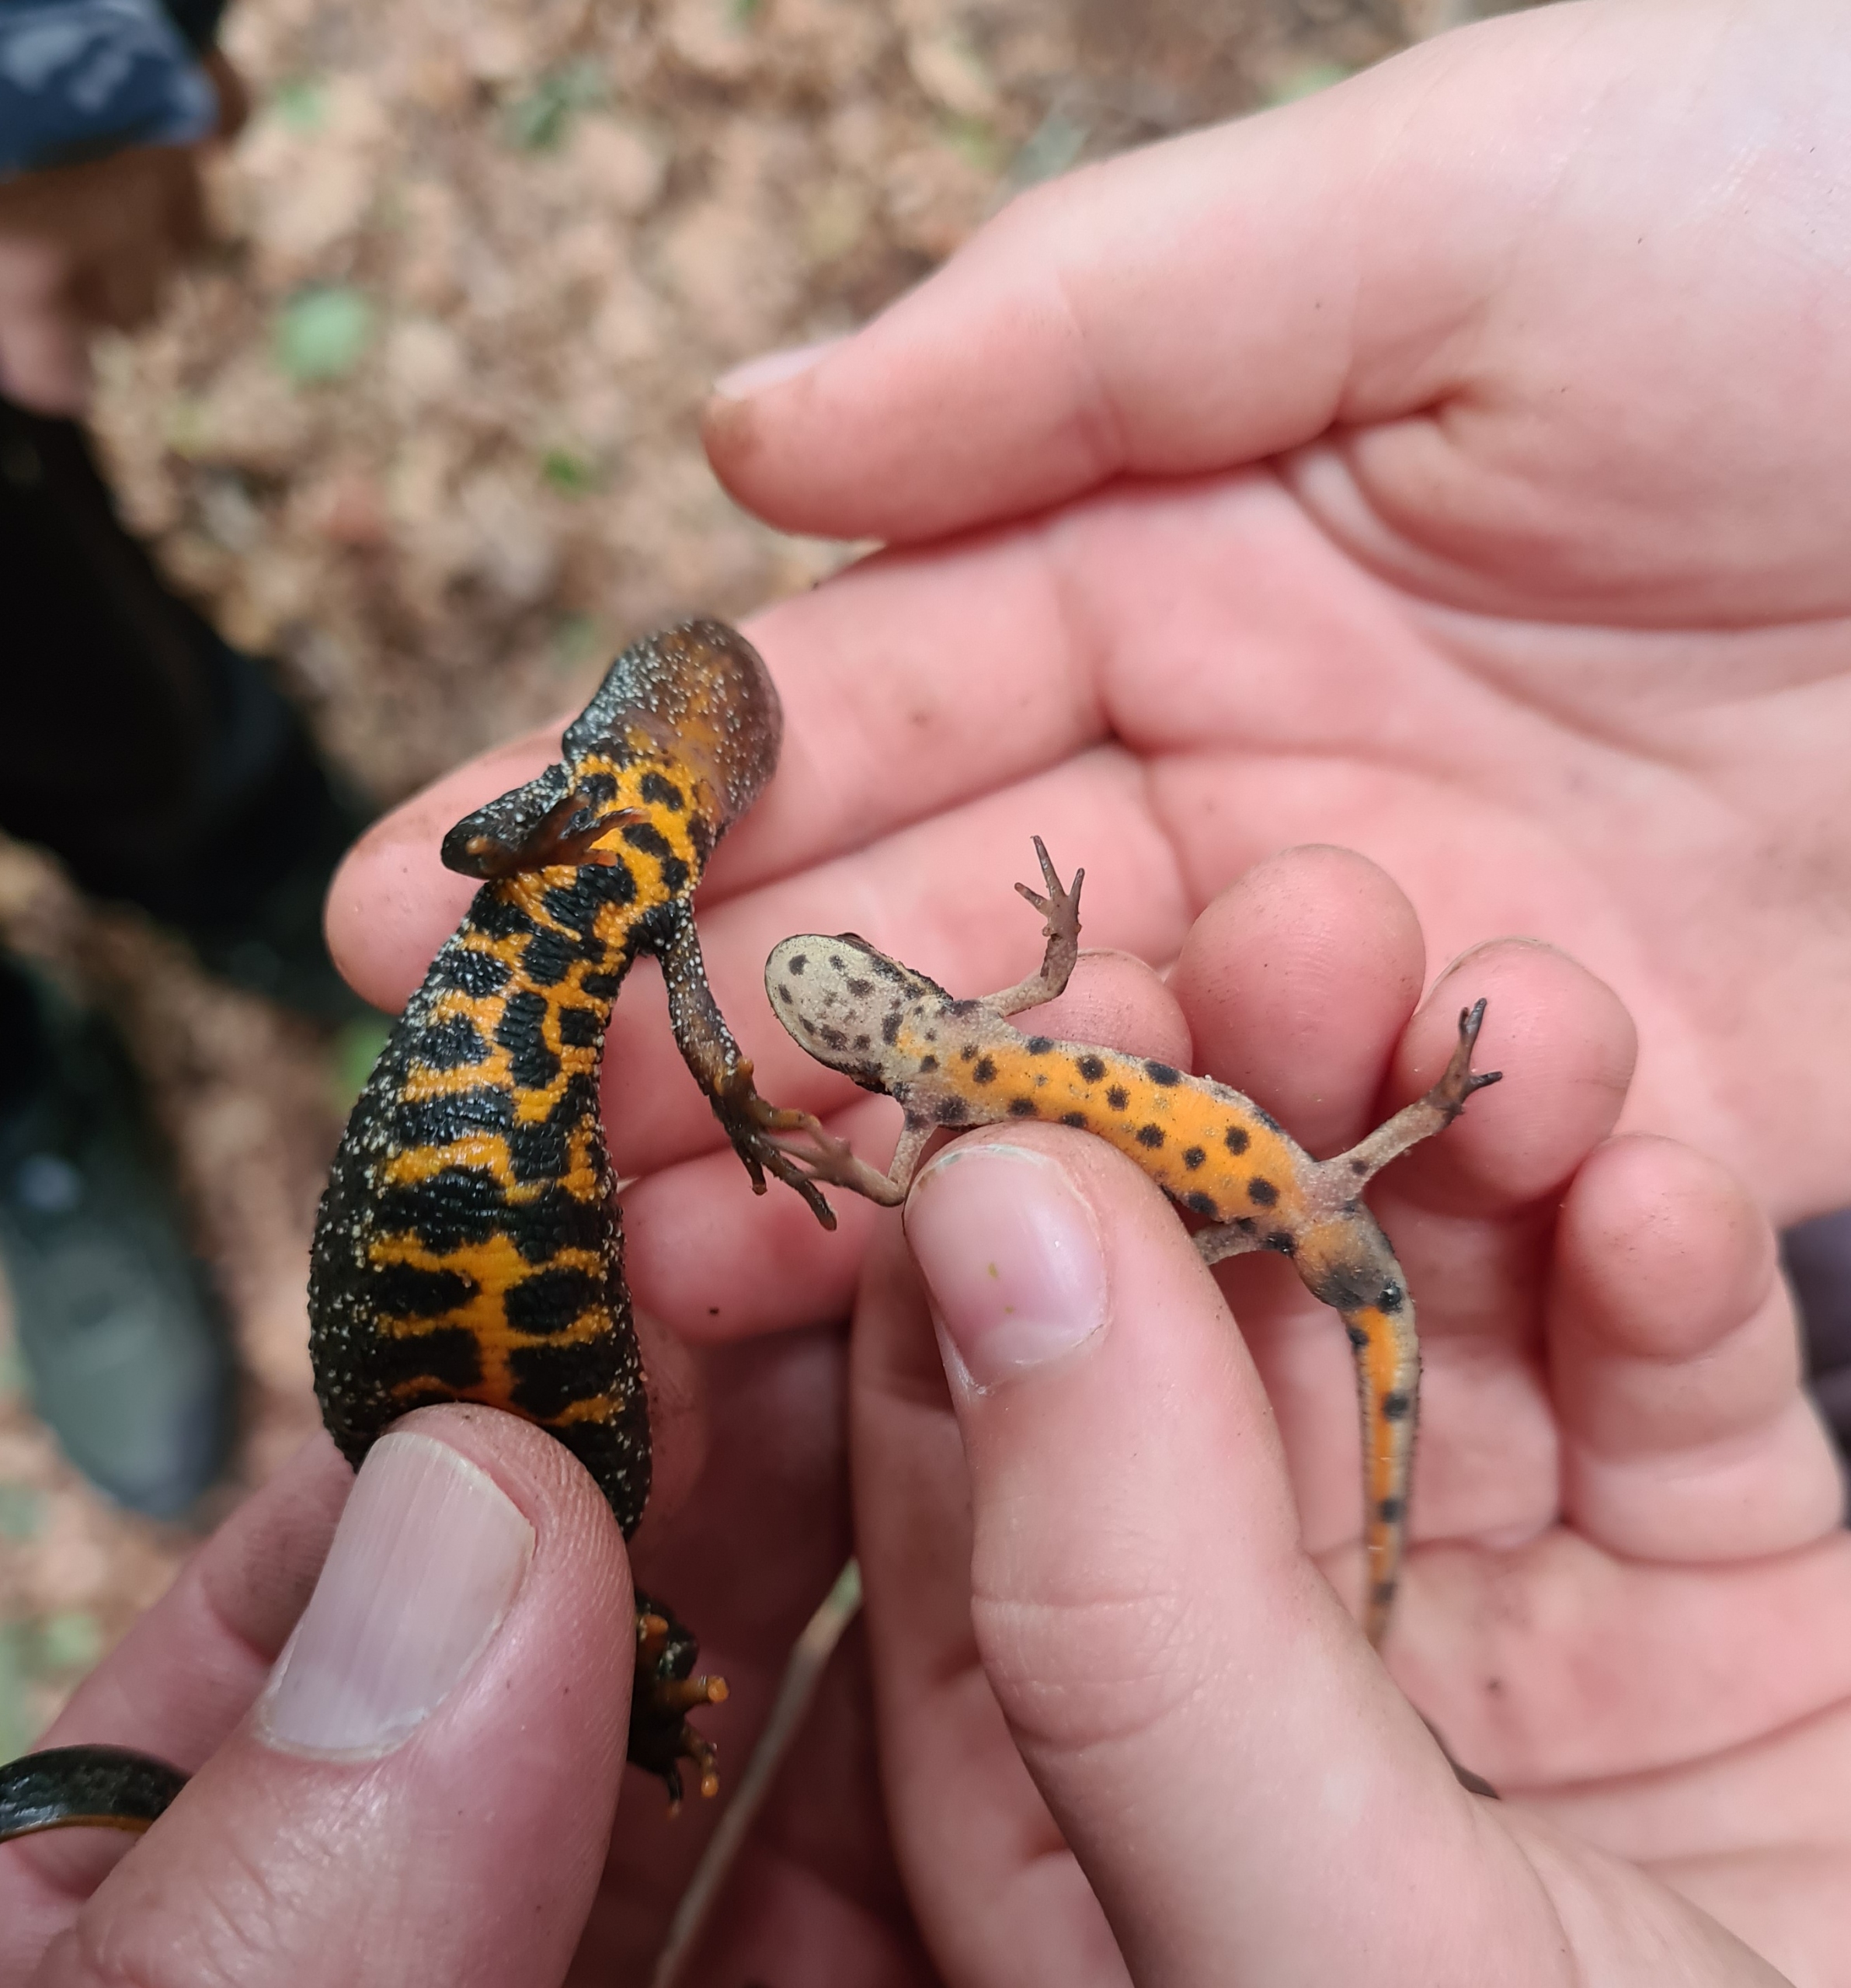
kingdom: Animalia
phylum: Chordata
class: Amphibia
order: Caudata
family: Salamandridae
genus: Lissotriton
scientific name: Lissotriton vulgaris
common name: Lille vandsalamander
